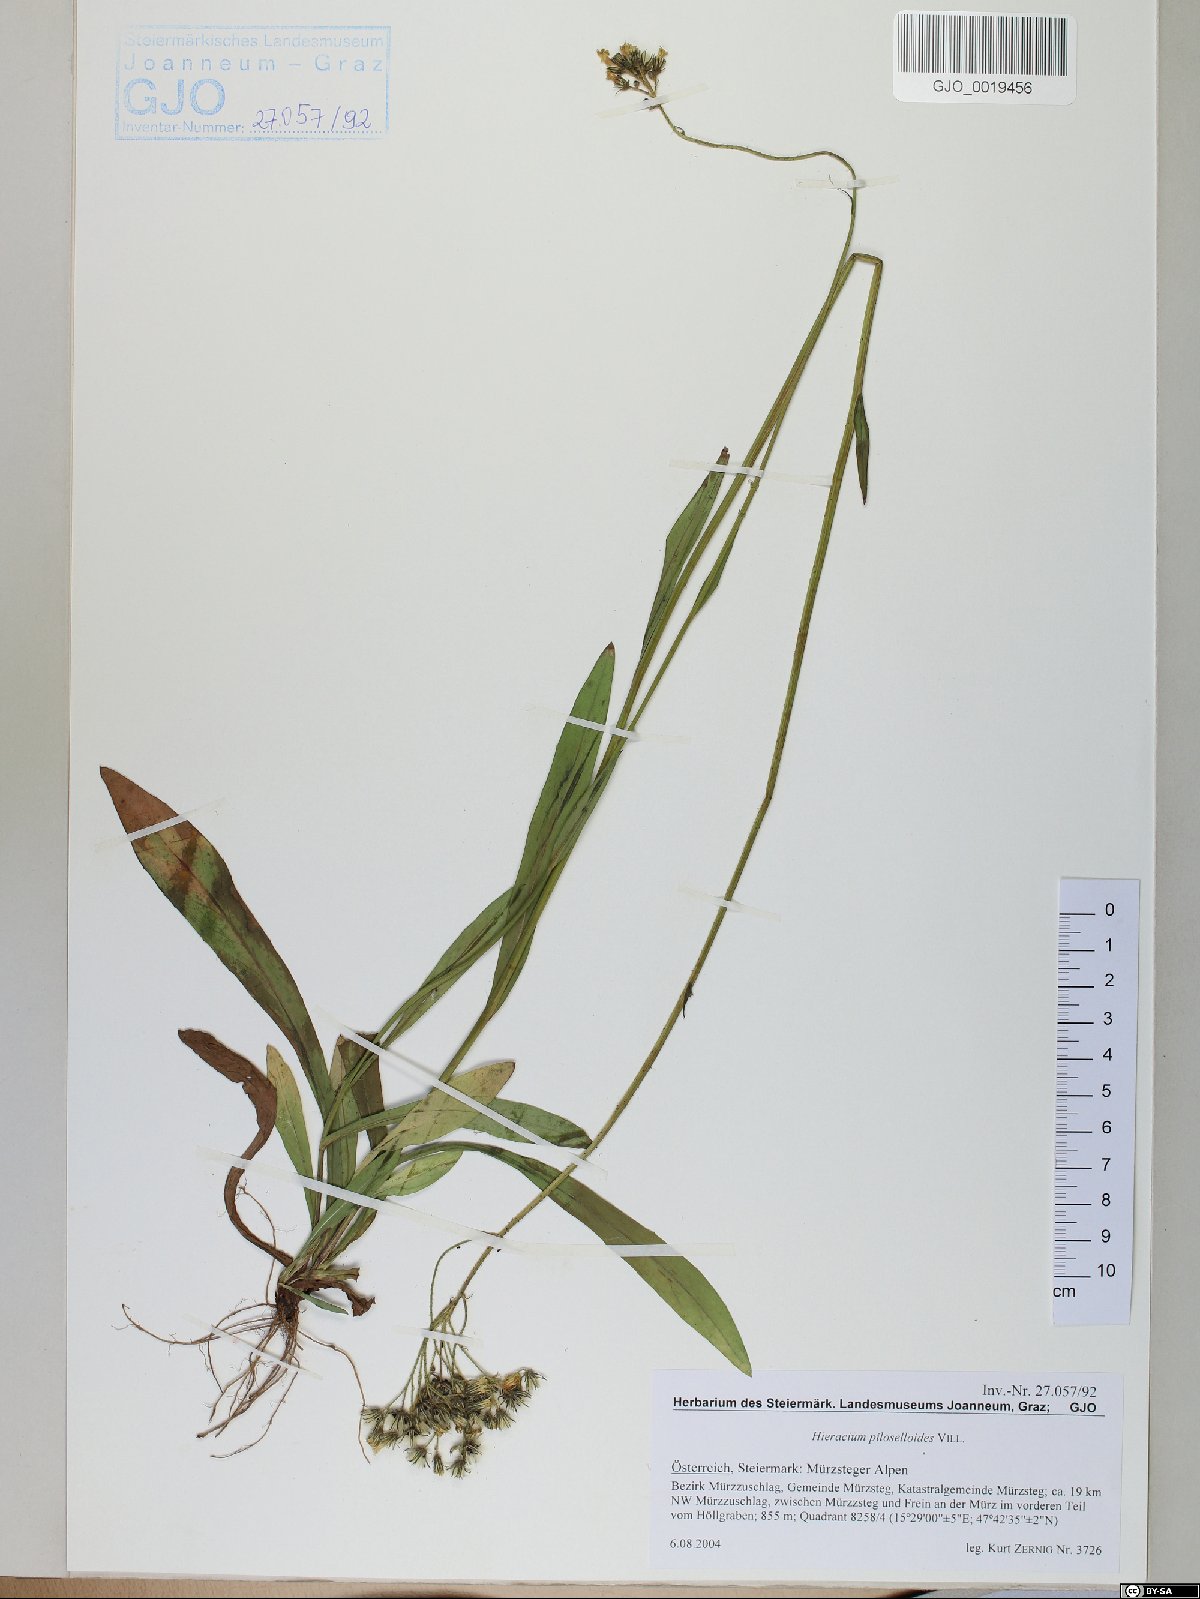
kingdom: Plantae
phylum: Tracheophyta
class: Magnoliopsida
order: Asterales
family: Asteraceae
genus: Pilosella
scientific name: Pilosella piloselloides
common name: Glaucous king-devil
